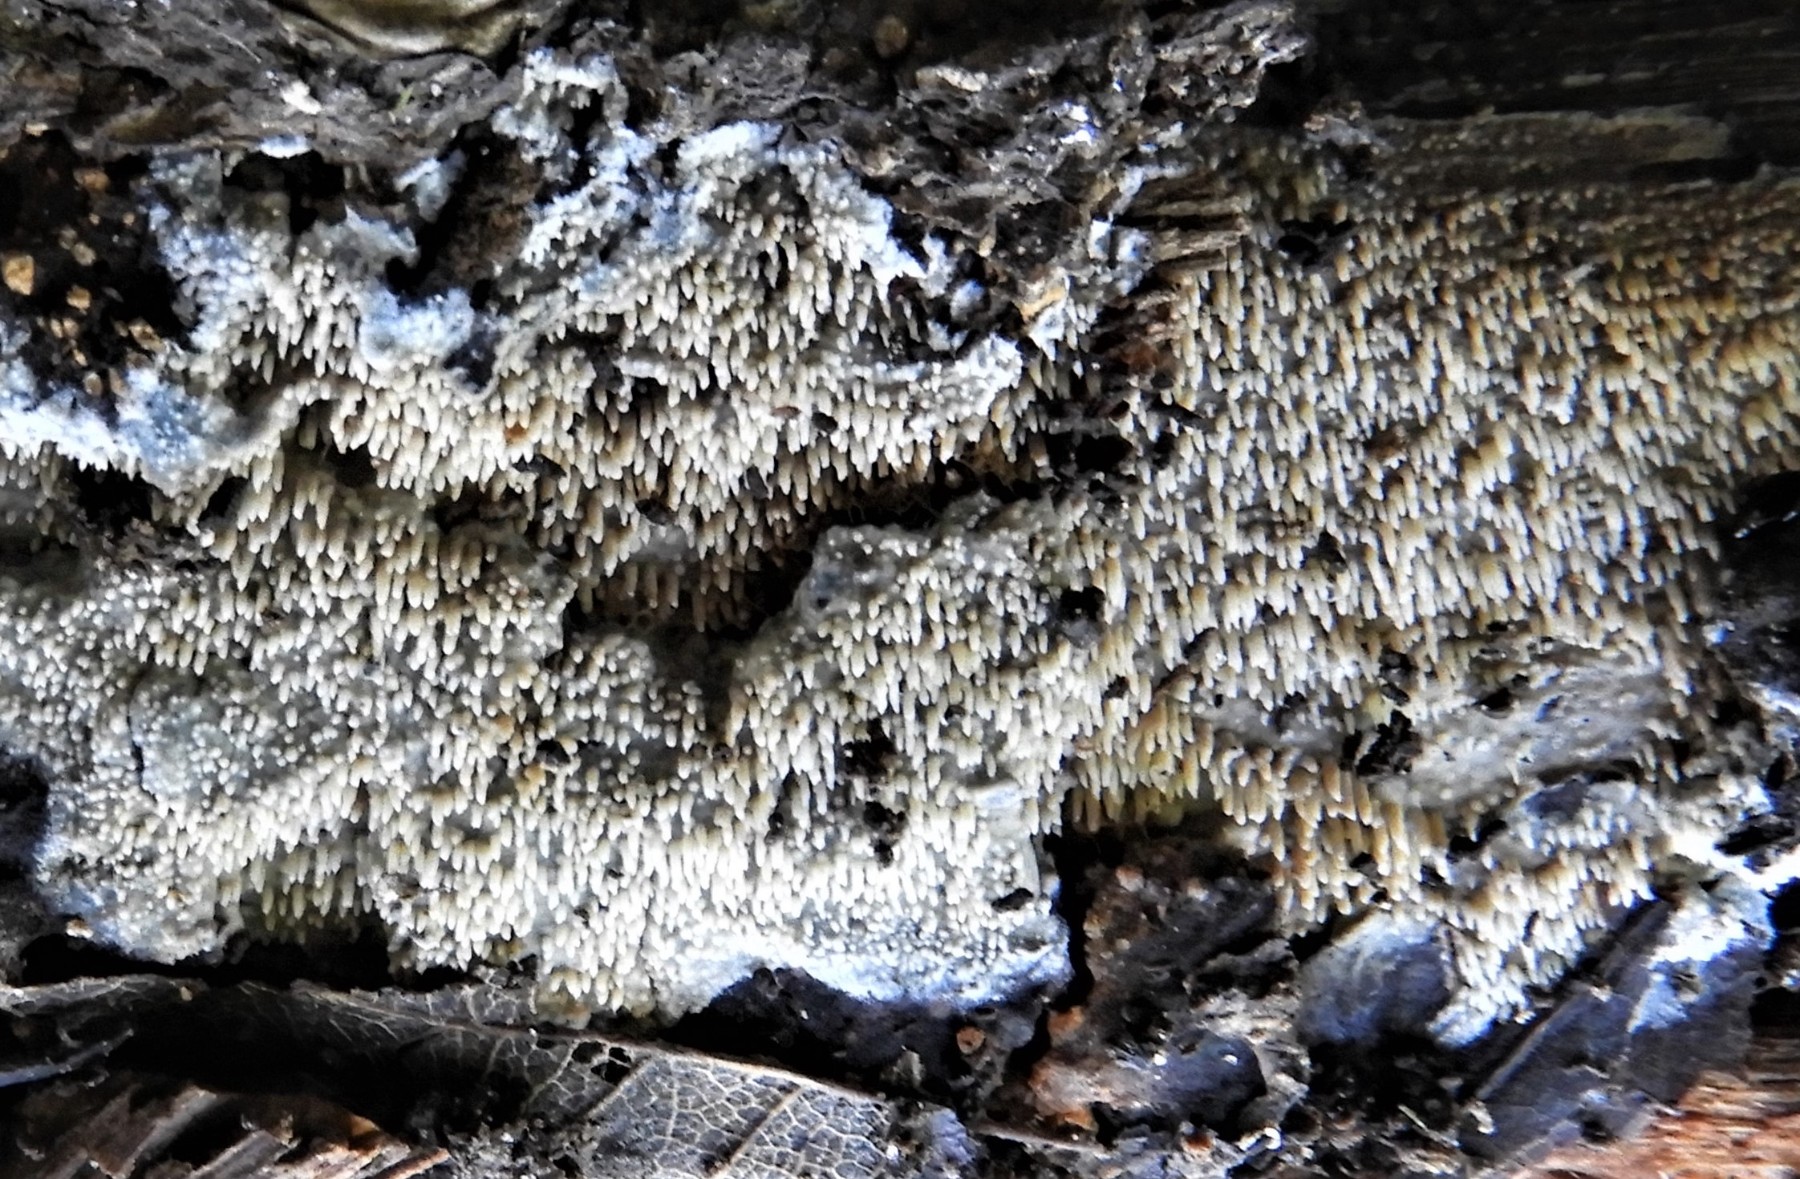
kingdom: Fungi
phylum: Basidiomycota
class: Agaricomycetes
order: Corticiales
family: Corticiaceae
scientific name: Corticiaceae
